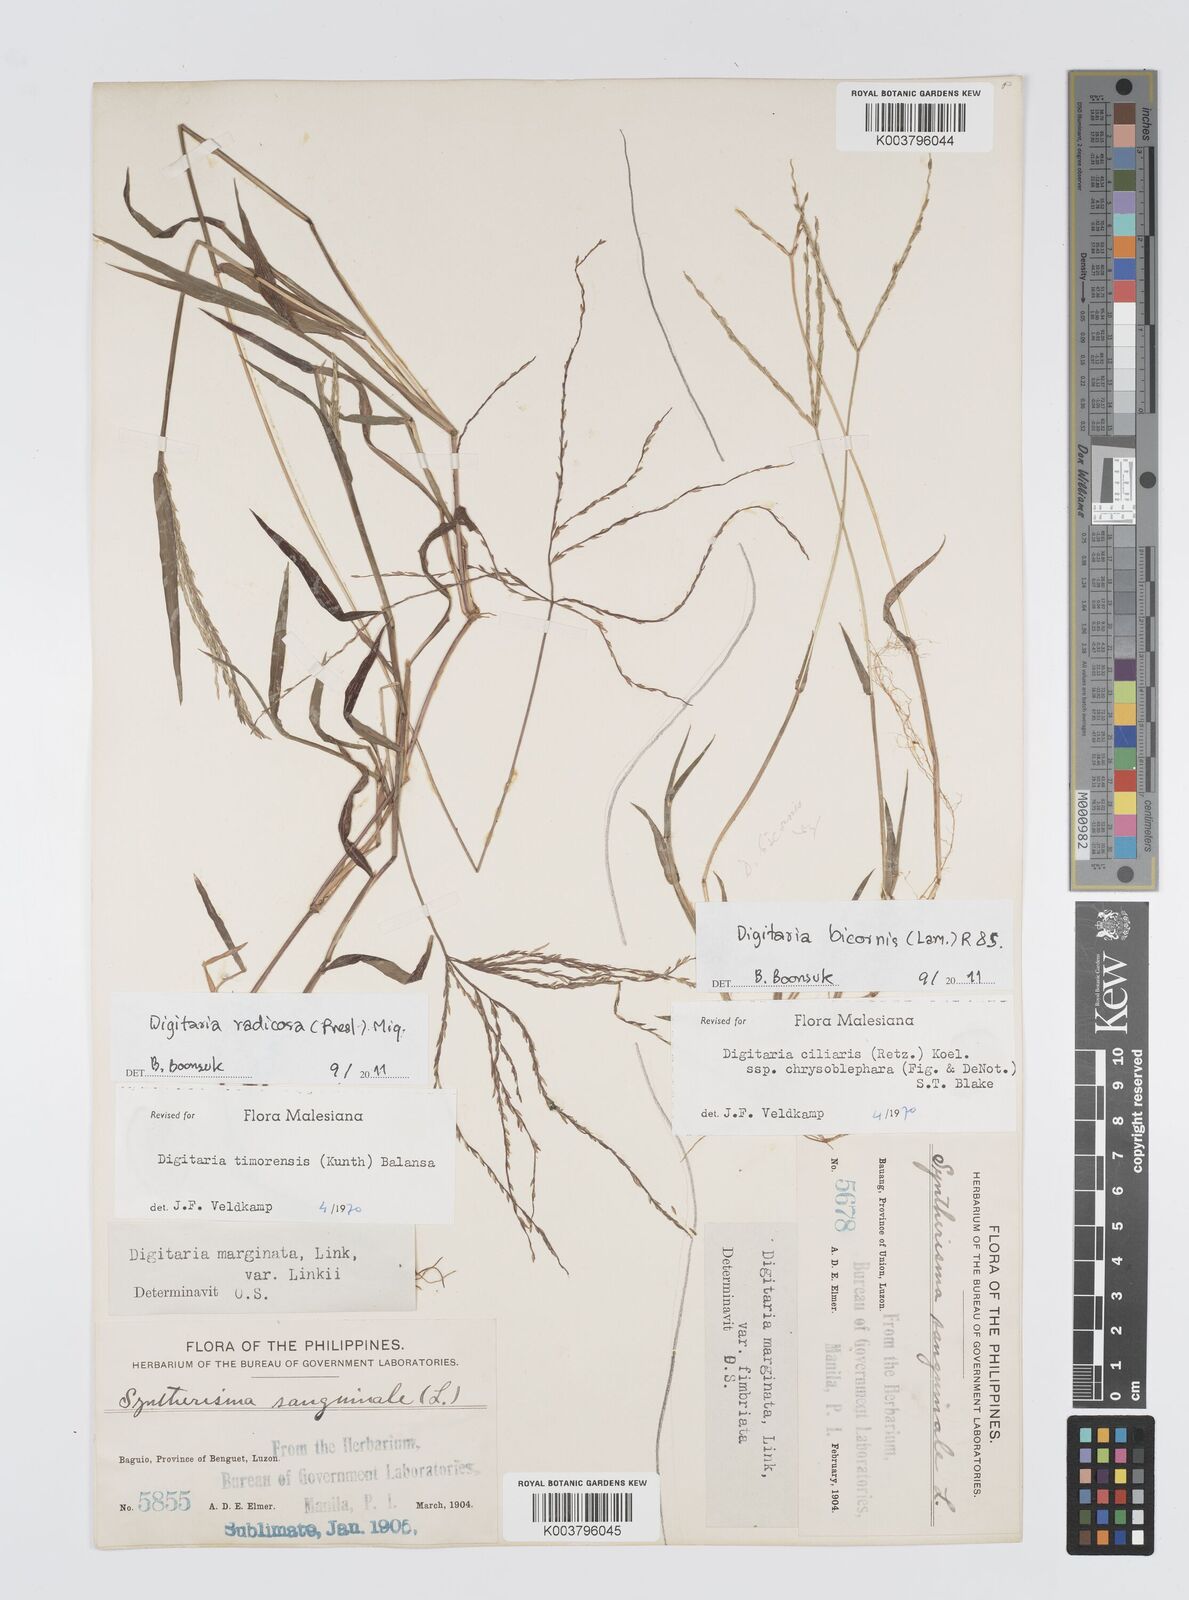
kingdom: Plantae
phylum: Tracheophyta
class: Liliopsida
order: Poales
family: Poaceae
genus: Digitaria
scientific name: Digitaria radicosa
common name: Trailing crabgrass
